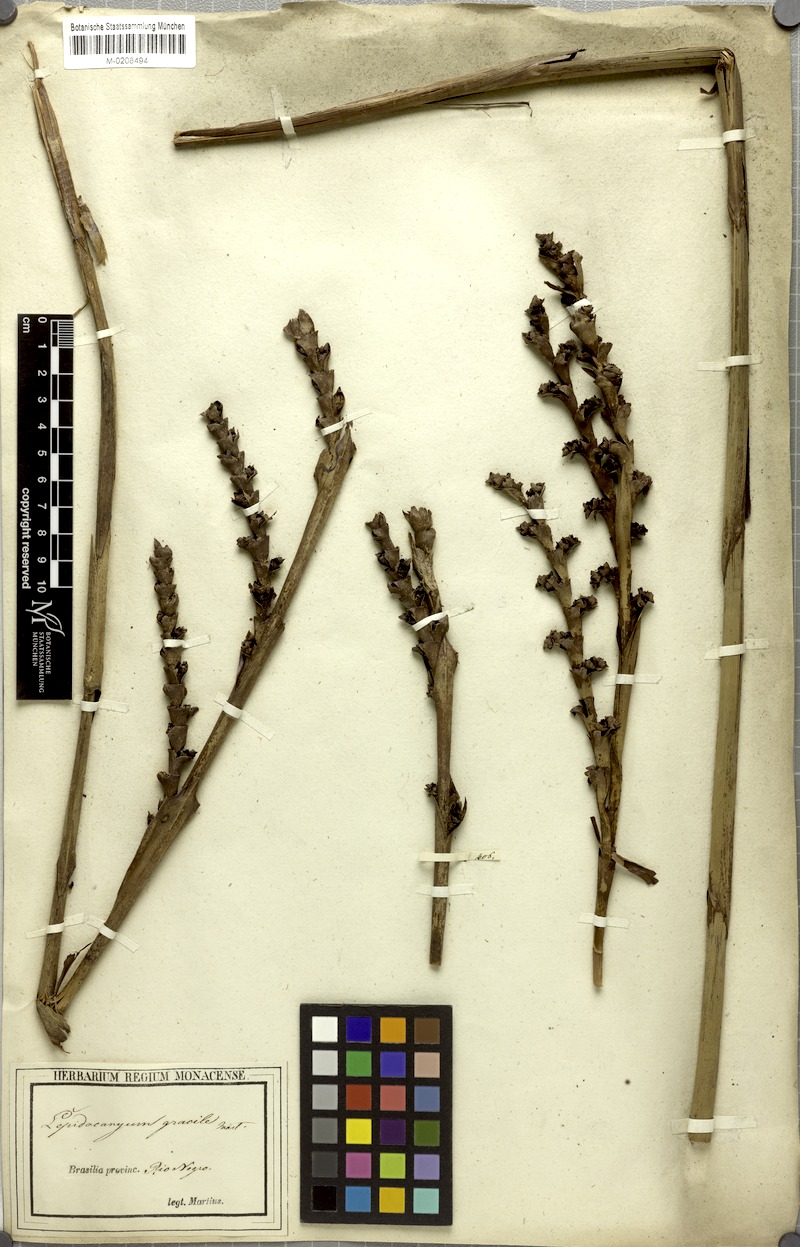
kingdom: Plantae
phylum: Tracheophyta
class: Liliopsida
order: Arecales
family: Arecaceae
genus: Lepidocaryum
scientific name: Lepidocaryum tenue
